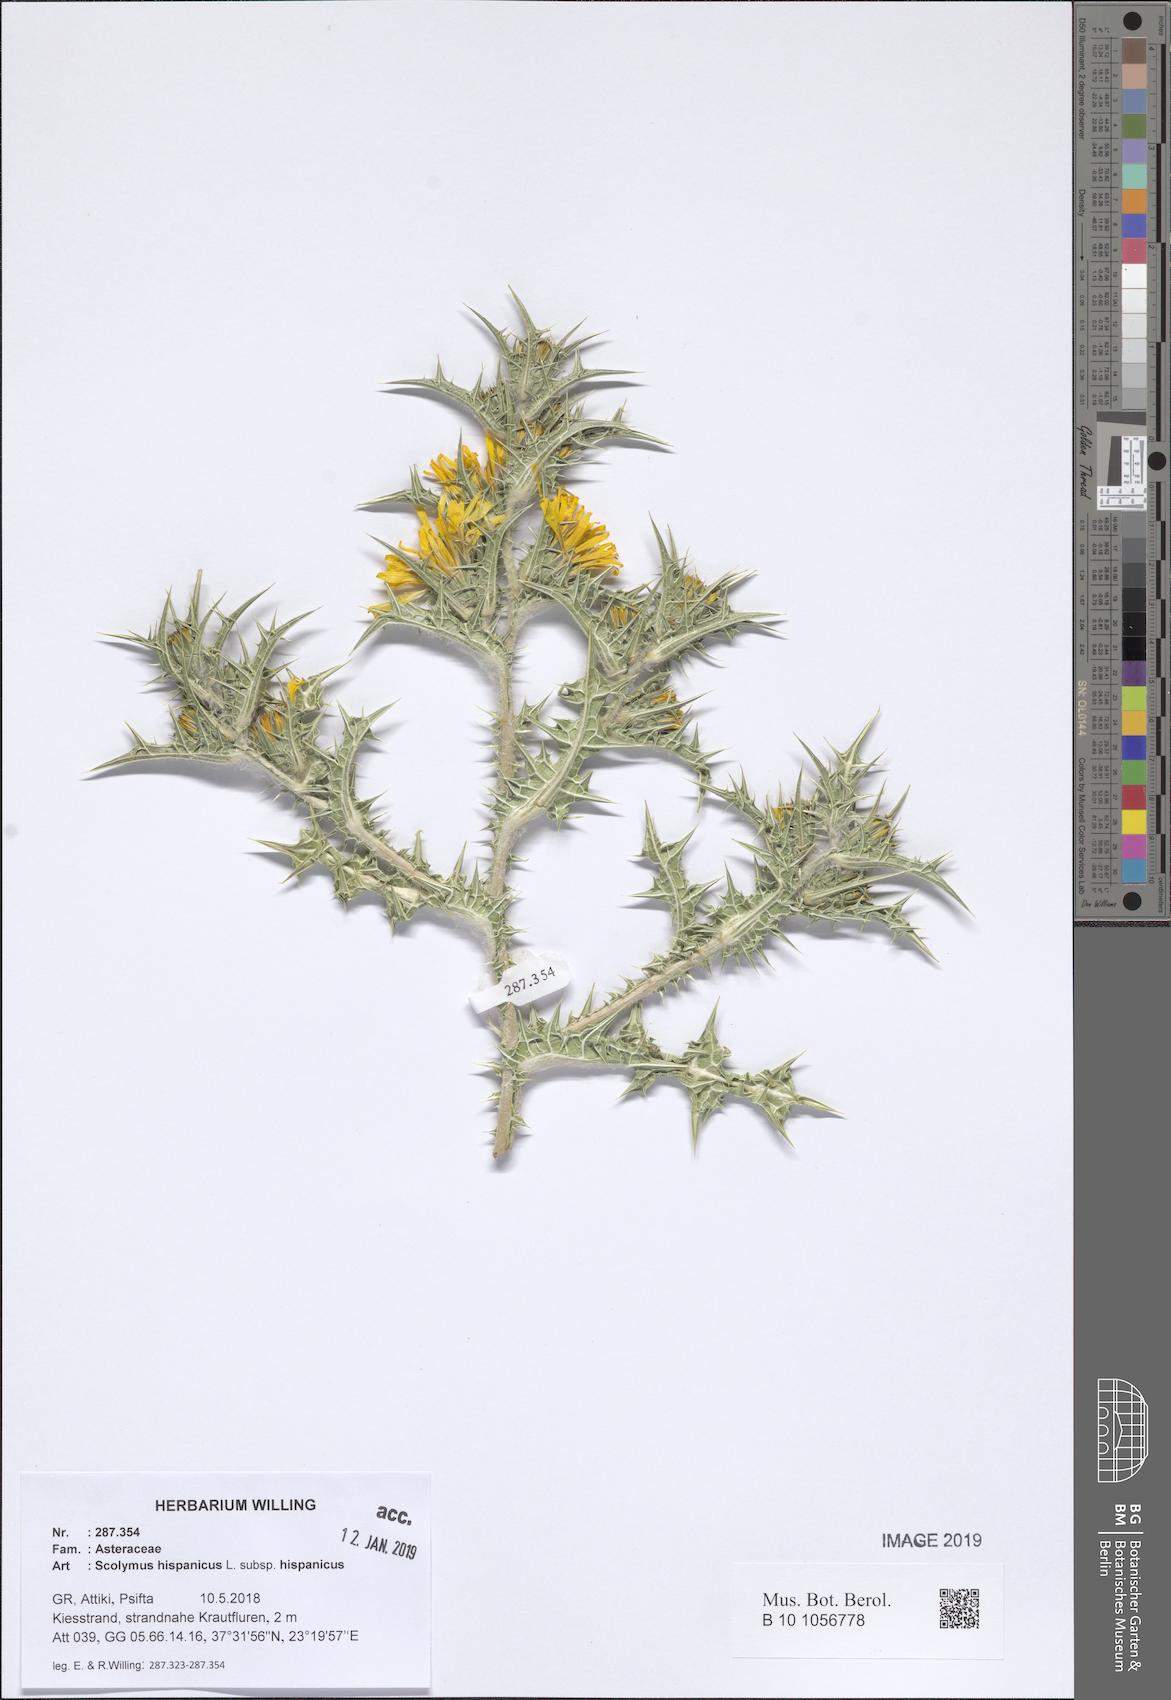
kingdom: Plantae
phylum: Tracheophyta
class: Magnoliopsida
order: Asterales
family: Asteraceae
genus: Scolymus
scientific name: Scolymus hispanicus
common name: Golden thistle
